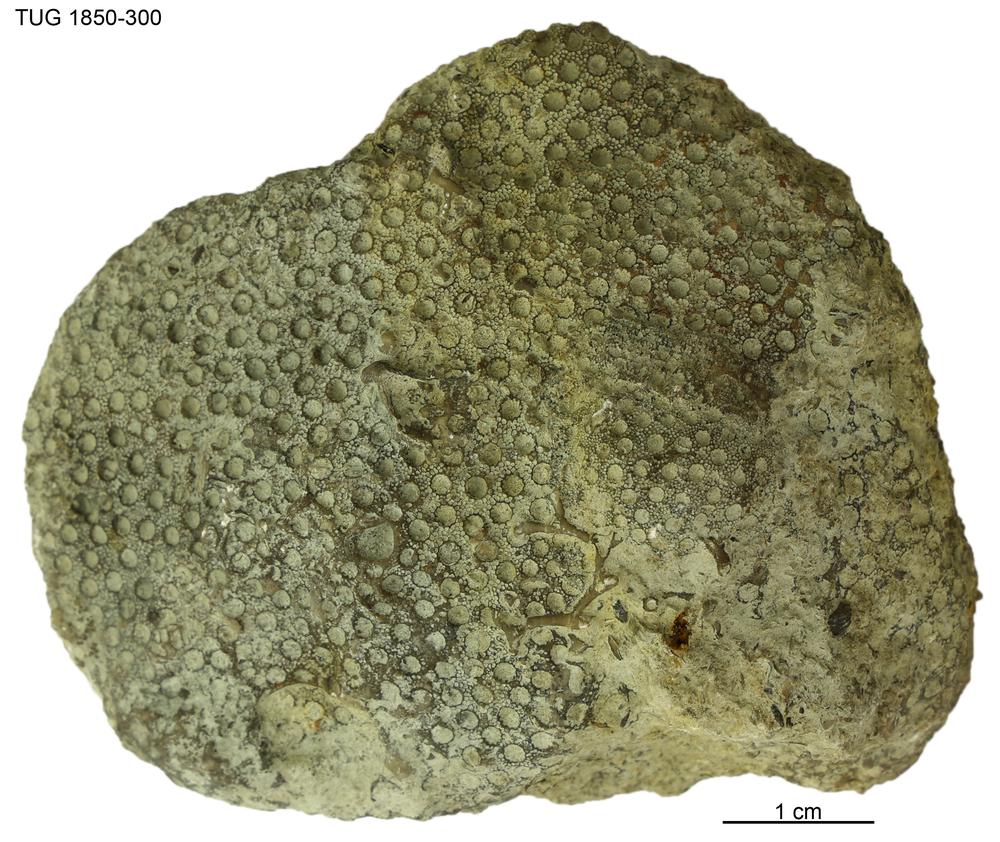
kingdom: Animalia
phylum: Cnidaria
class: Anthozoa
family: Auloporidae
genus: Aulopora
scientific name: Aulopora
